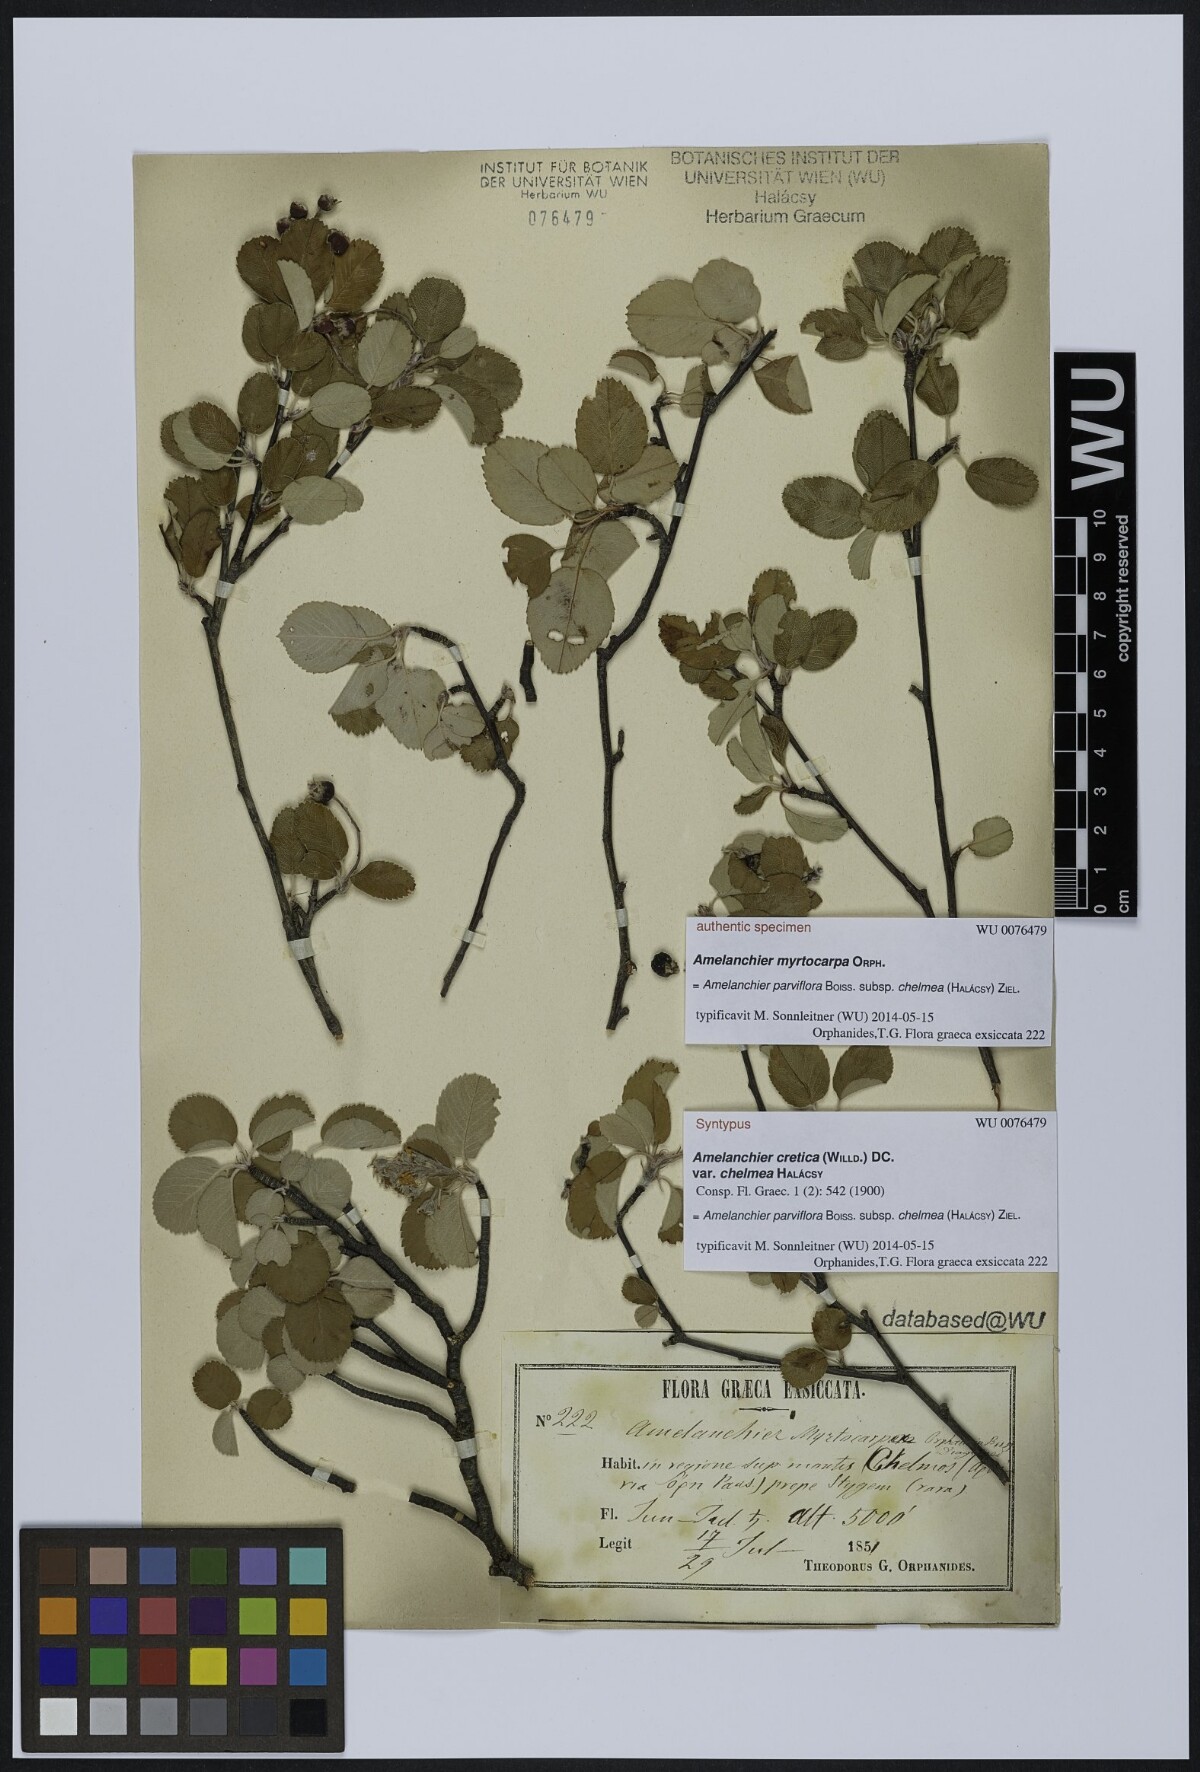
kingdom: Plantae
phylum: Tracheophyta
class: Magnoliopsida
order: Rosales
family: Rosaceae
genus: Amelanchier
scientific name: Amelanchier parviflora
